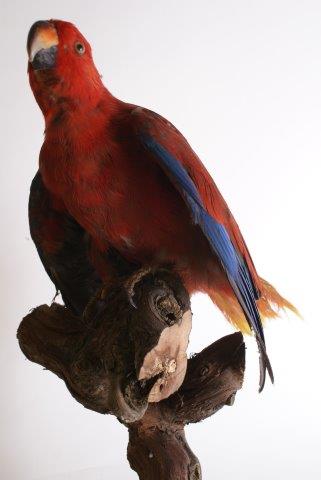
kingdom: Animalia
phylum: Chordata
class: Aves
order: Psittaciformes
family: Psittacidae
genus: Eclectus
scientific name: Eclectus
